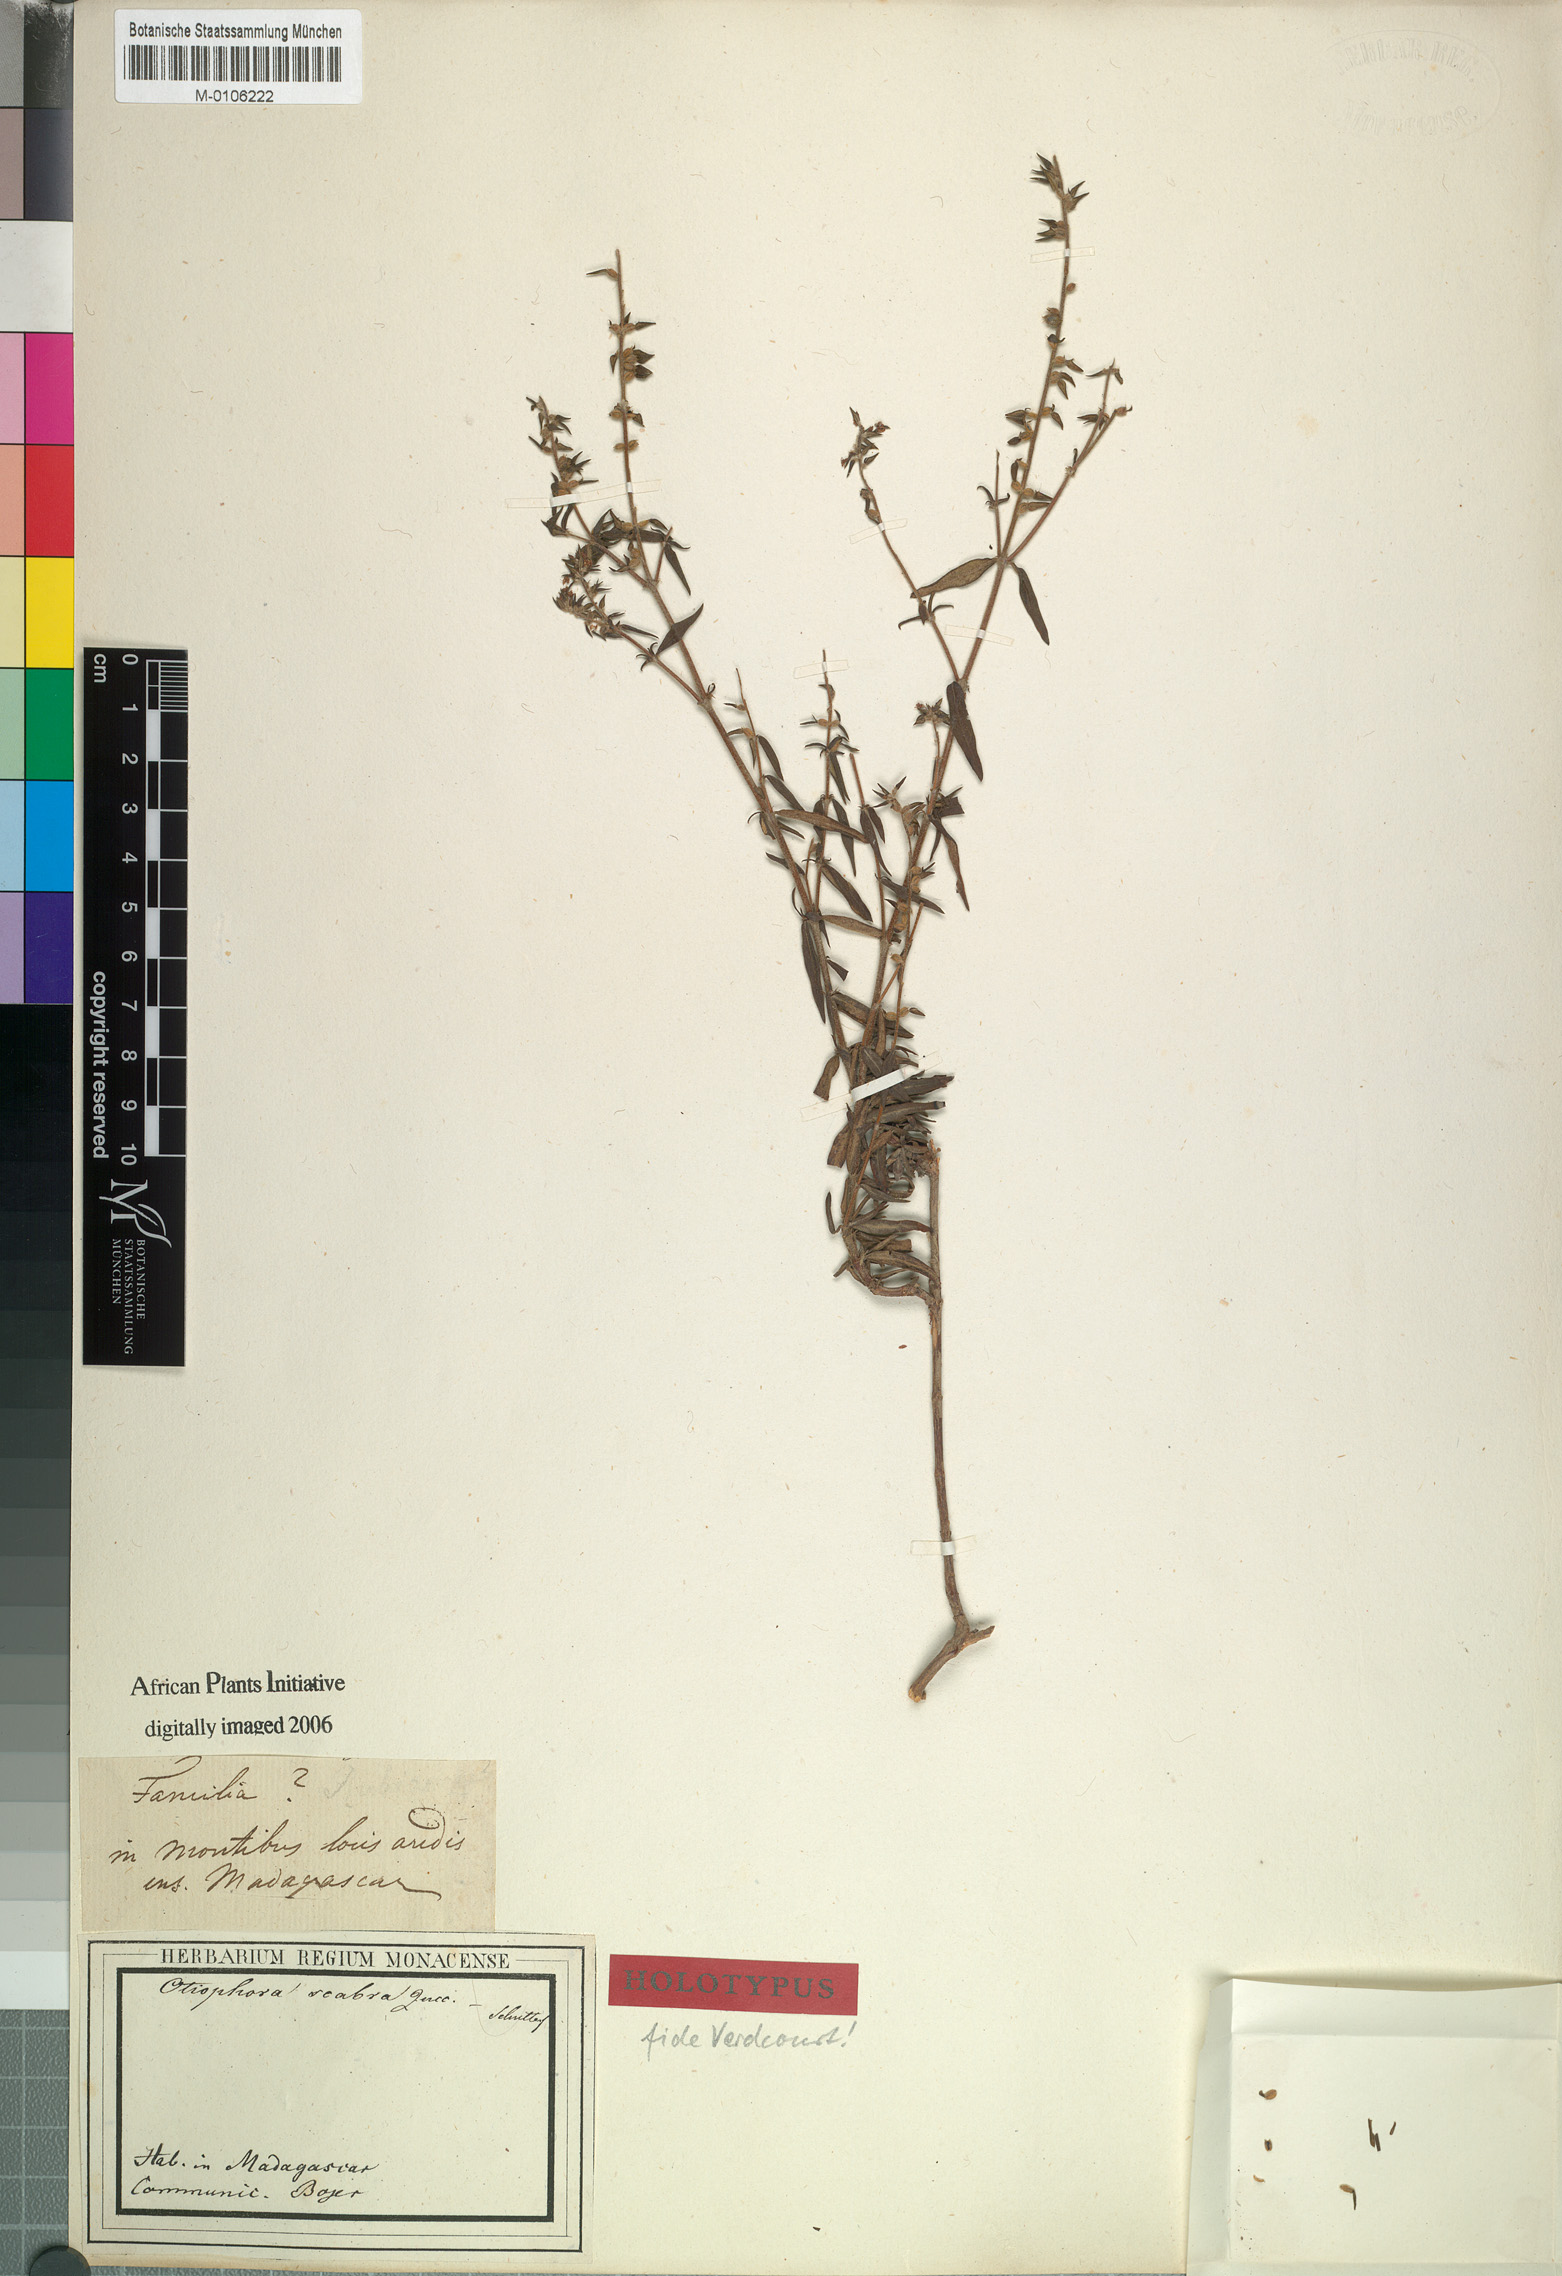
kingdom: Plantae
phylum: Tracheophyta
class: Magnoliopsida
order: Gentianales
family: Rubiaceae
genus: Otiophora
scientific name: Otiophora scabra
